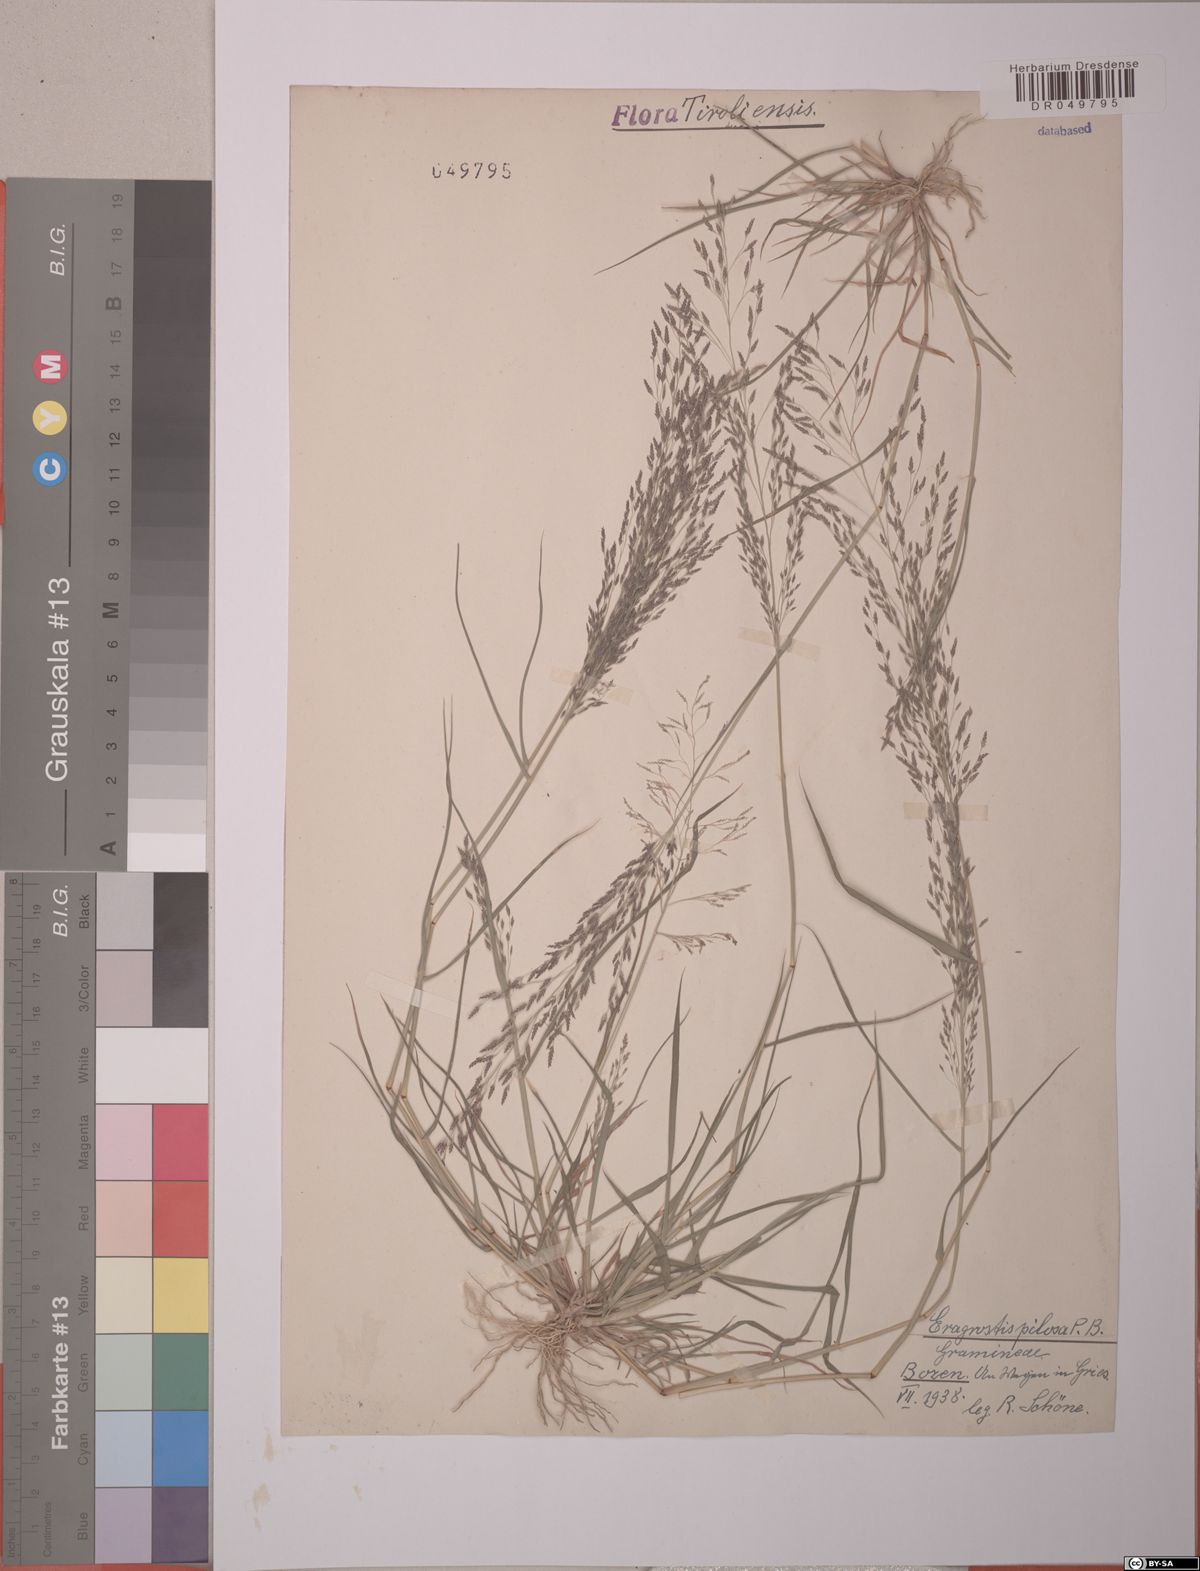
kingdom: Plantae
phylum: Tracheophyta
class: Liliopsida
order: Poales
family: Poaceae
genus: Eragrostis
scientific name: Eragrostis pilosa
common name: Indian lovegrass
